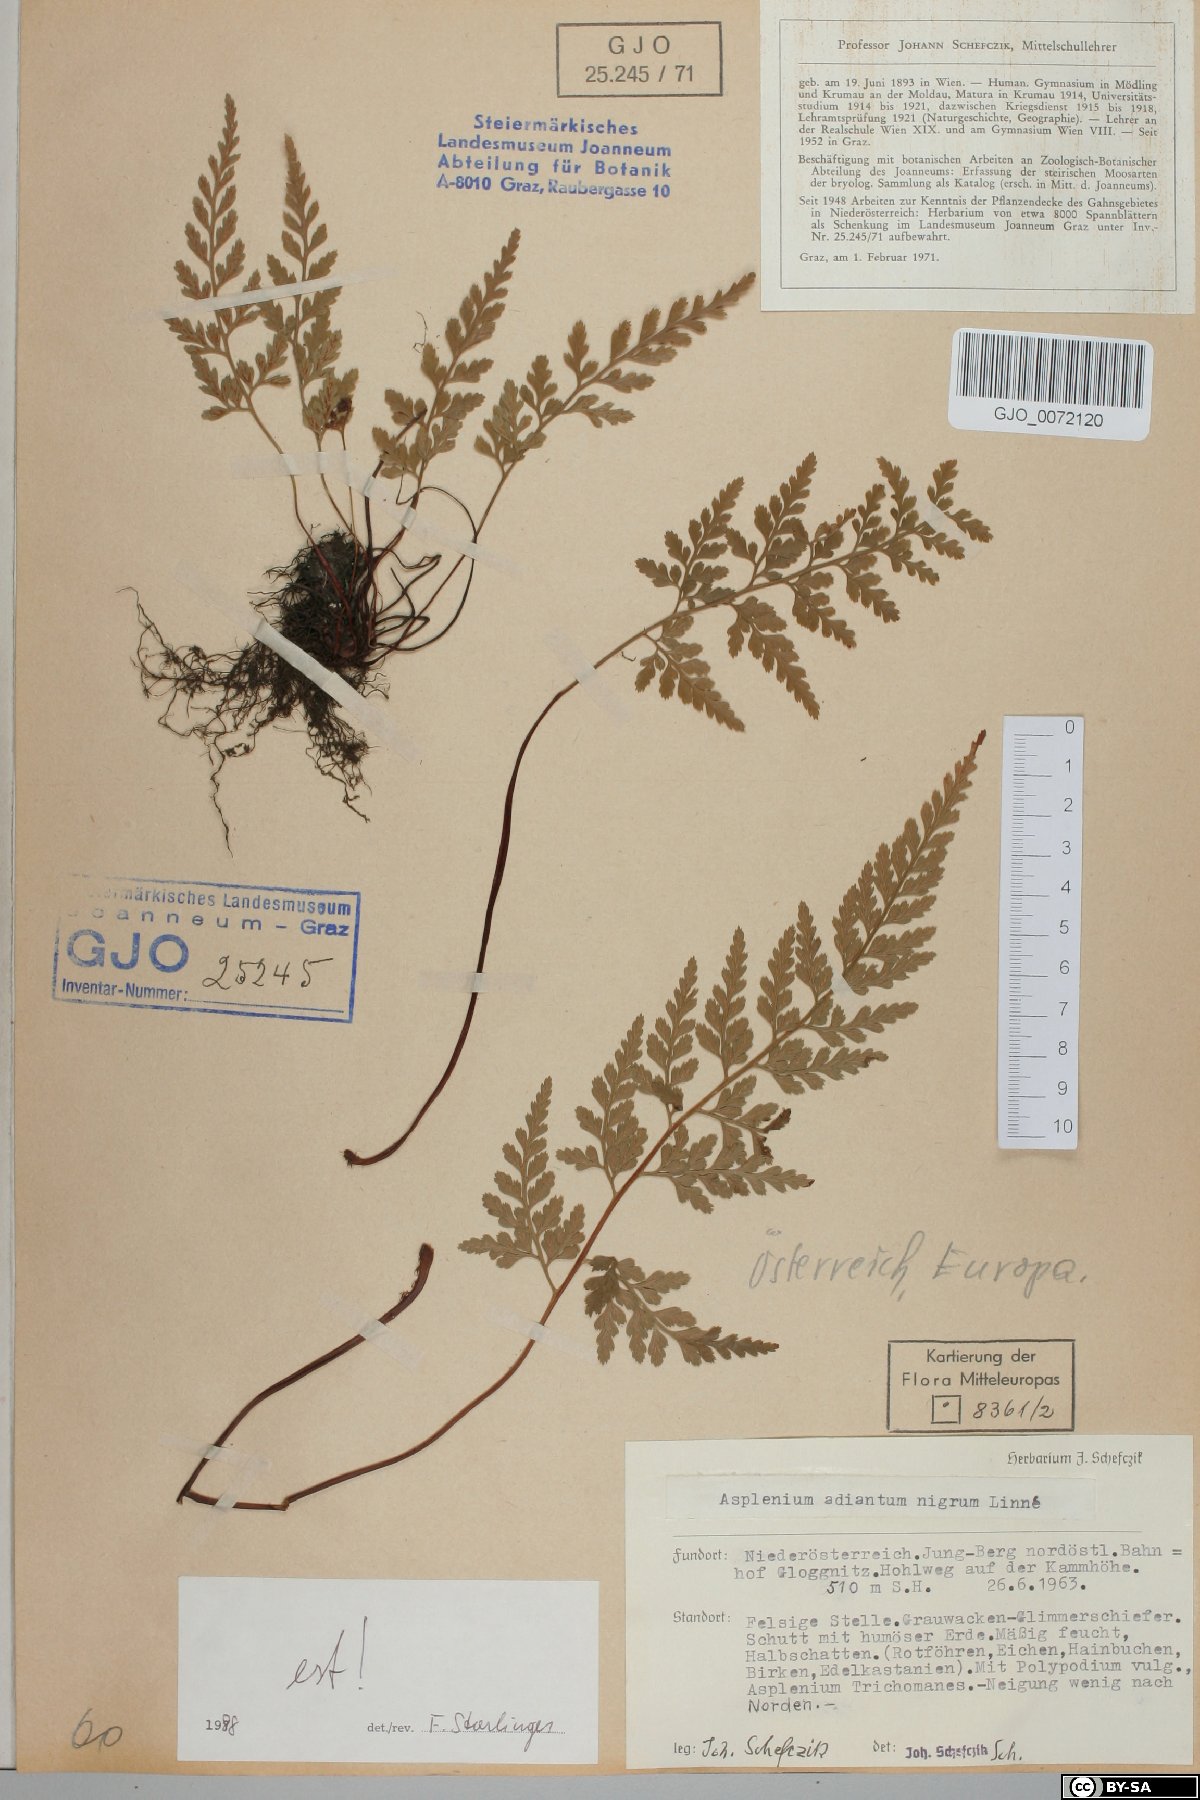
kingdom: Plantae
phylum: Tracheophyta
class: Polypodiopsida
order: Polypodiales
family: Aspleniaceae
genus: Asplenium
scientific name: Asplenium adiantum-nigrum
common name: Black spleenwort
